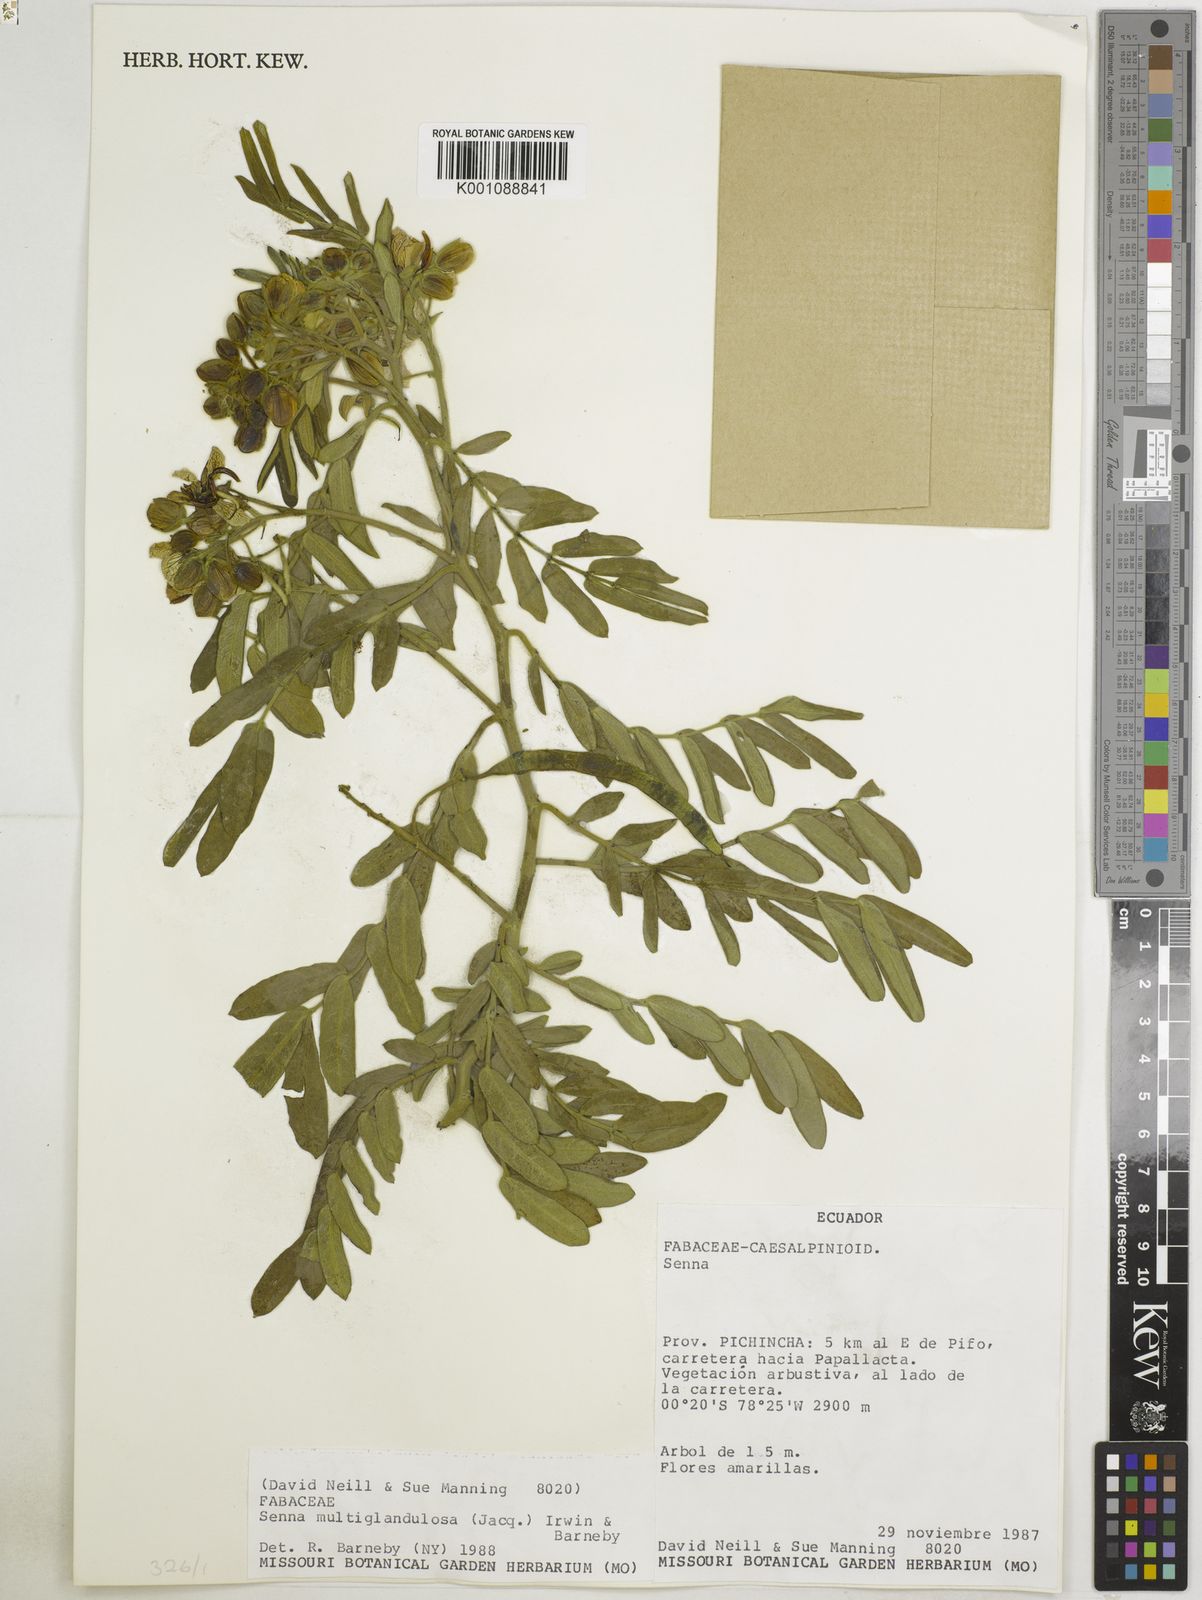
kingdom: Plantae
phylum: Tracheophyta
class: Magnoliopsida
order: Fabales
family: Fabaceae
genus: Senna
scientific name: Senna multiglandulosa
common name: Glandular senna
